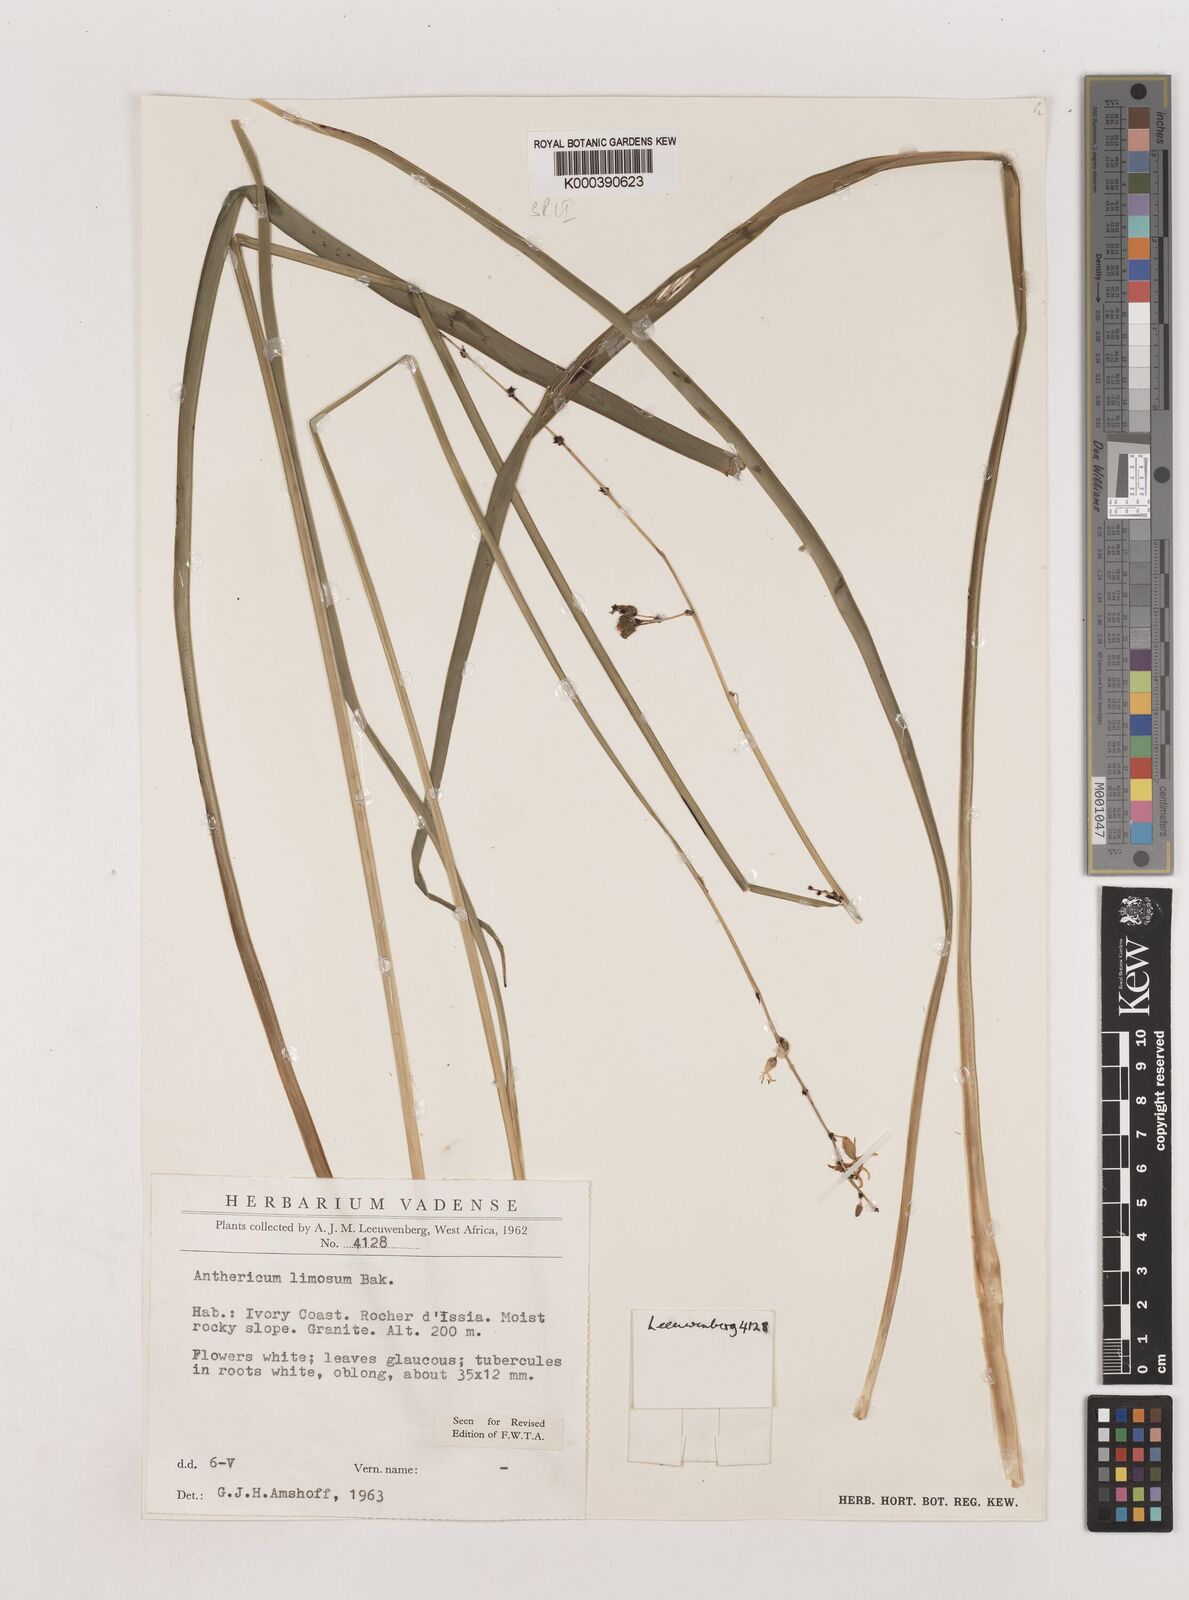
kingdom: Plantae
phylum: Tracheophyta
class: Liliopsida
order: Asparagales
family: Asparagaceae
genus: Chlorophytum
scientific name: Chlorophytum limosum
